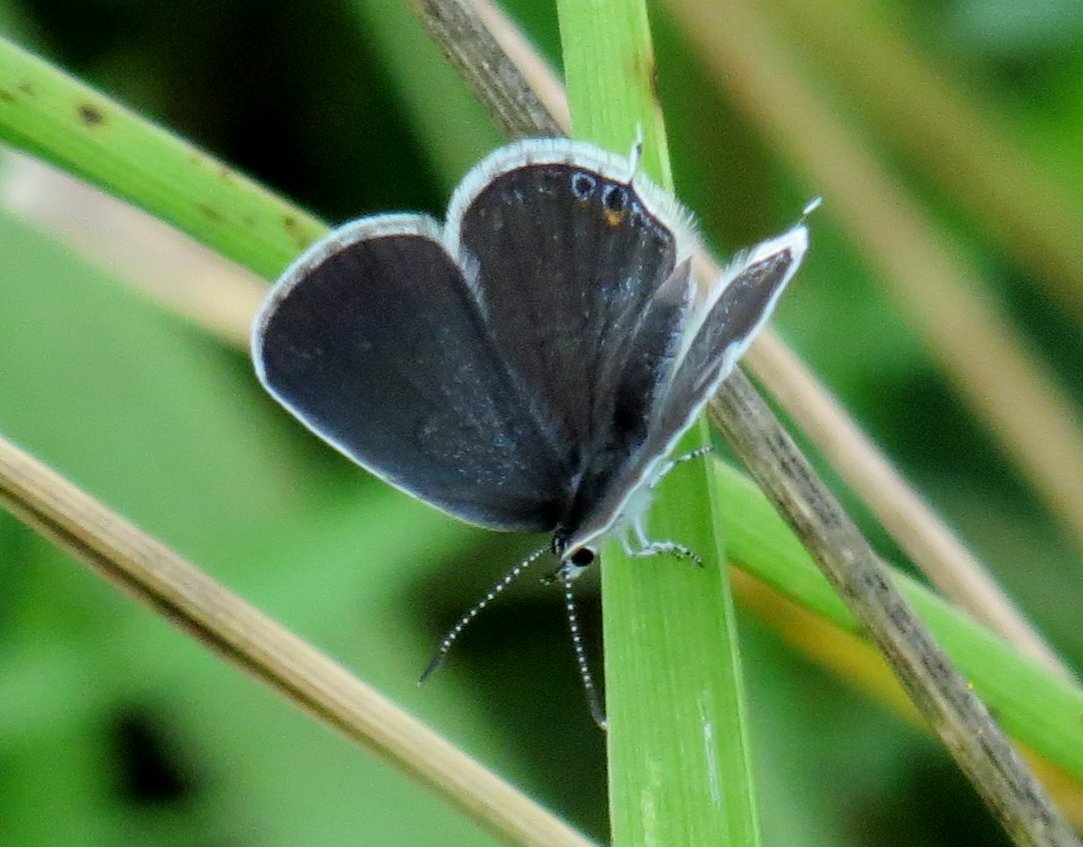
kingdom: Animalia
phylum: Arthropoda
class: Insecta
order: Lepidoptera
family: Lycaenidae
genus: Elkalyce
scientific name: Elkalyce comyntas
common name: Eastern Tailed-Blue
